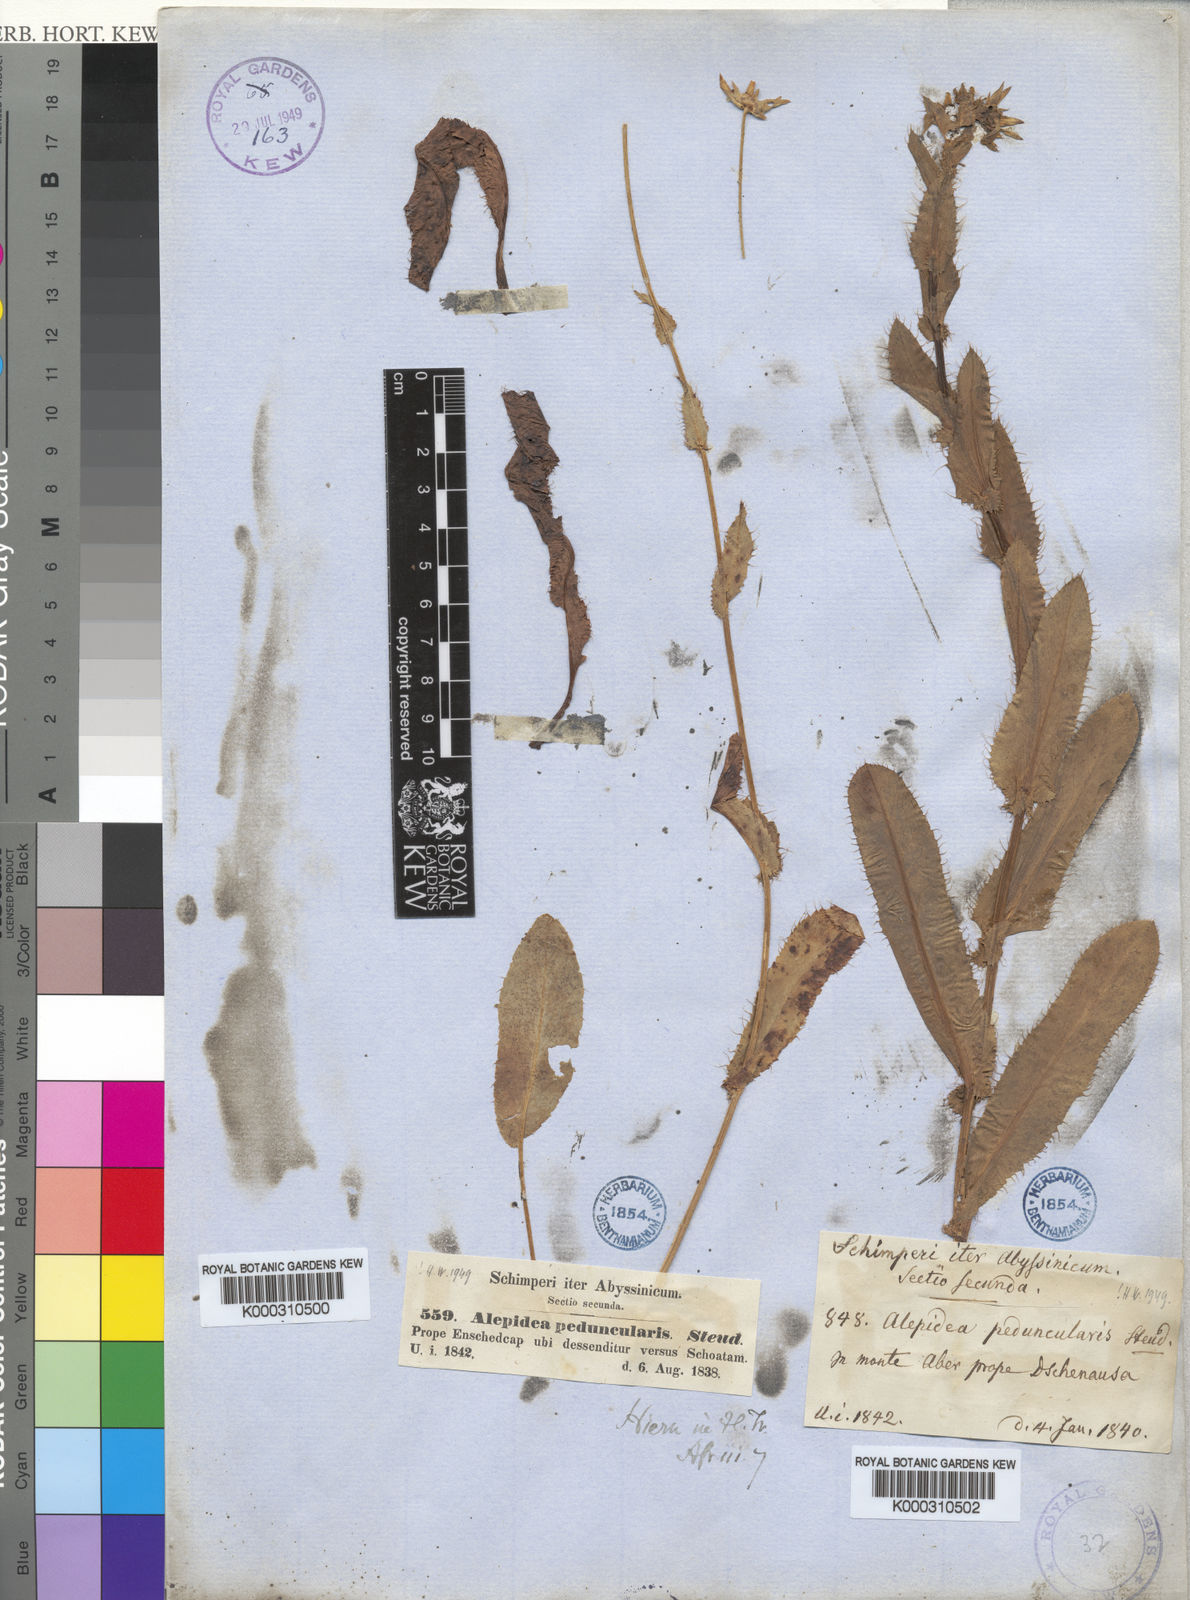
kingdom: Plantae
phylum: Tracheophyta
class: Magnoliopsida
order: Apiales
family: Apiaceae
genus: Alepidea
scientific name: Alepidea
